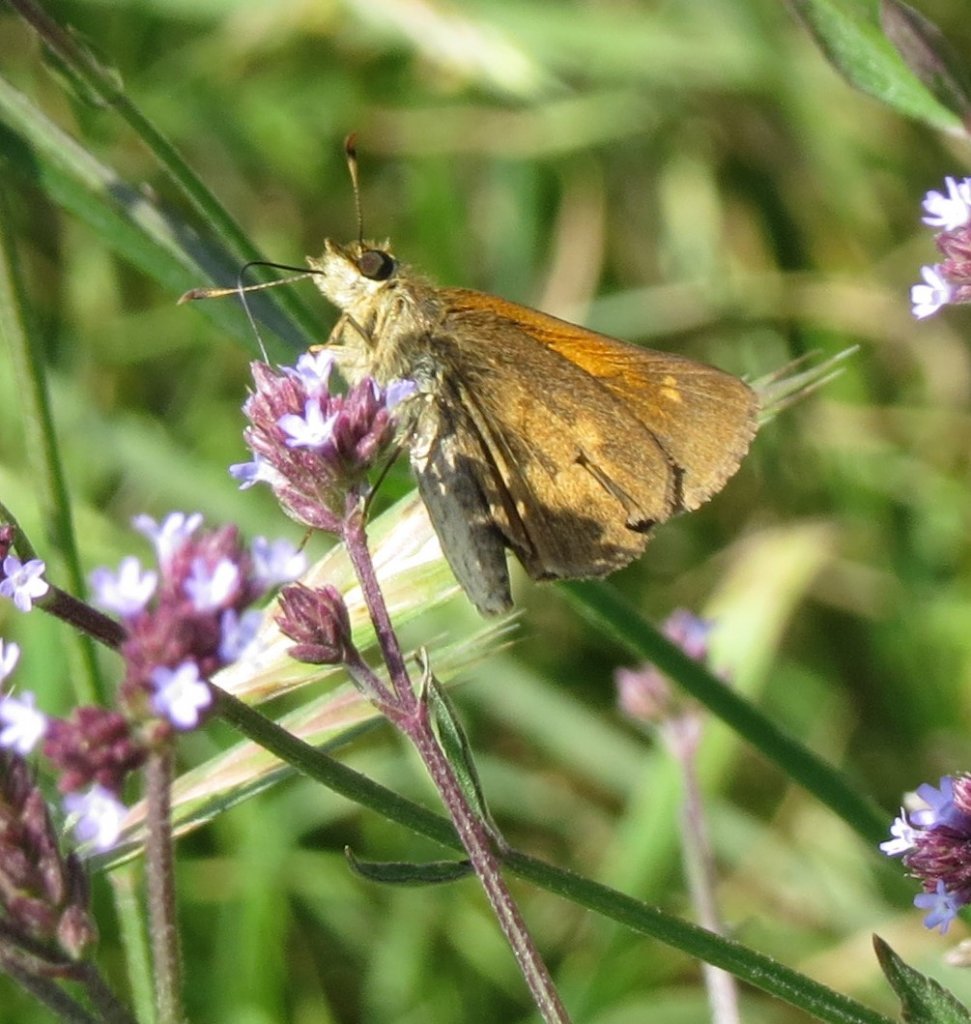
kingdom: Animalia
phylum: Arthropoda
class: Insecta
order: Lepidoptera
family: Hesperiidae
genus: Poanes
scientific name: Poanes viator
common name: Broad-winged Skipper
